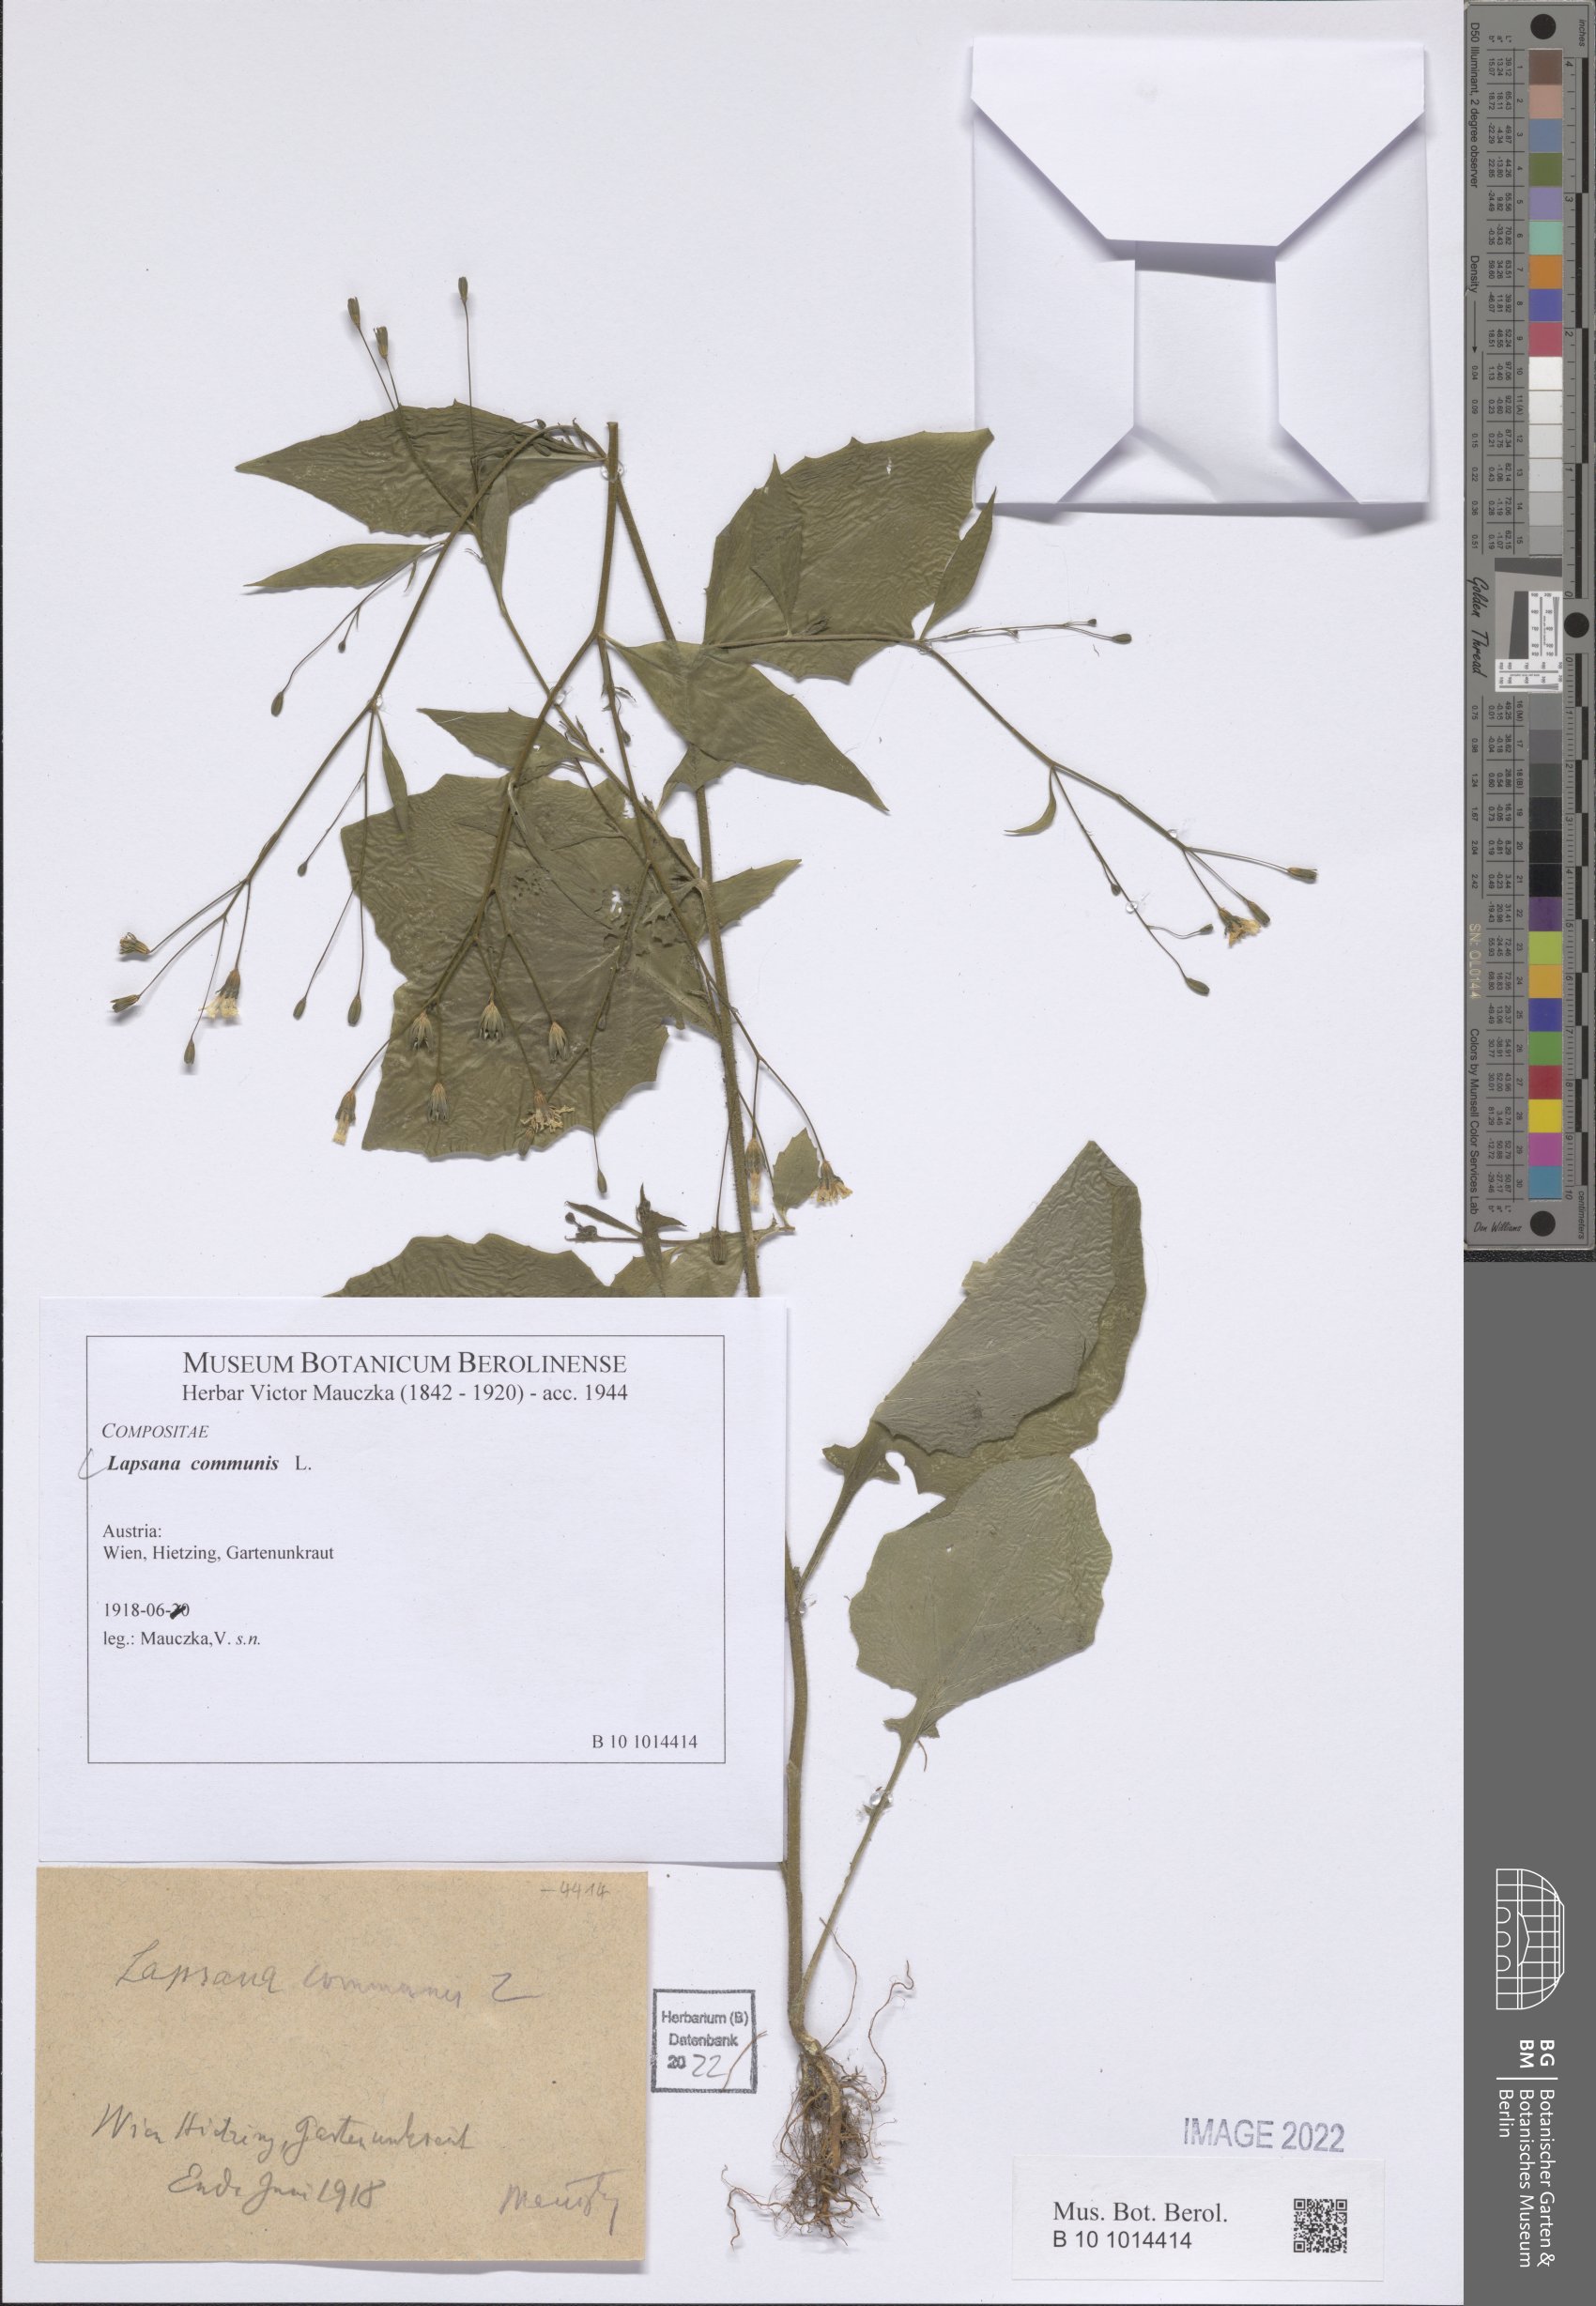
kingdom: Plantae
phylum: Tracheophyta
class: Magnoliopsida
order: Asterales
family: Asteraceae
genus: Lapsana
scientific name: Lapsana communis
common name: Nipplewort
